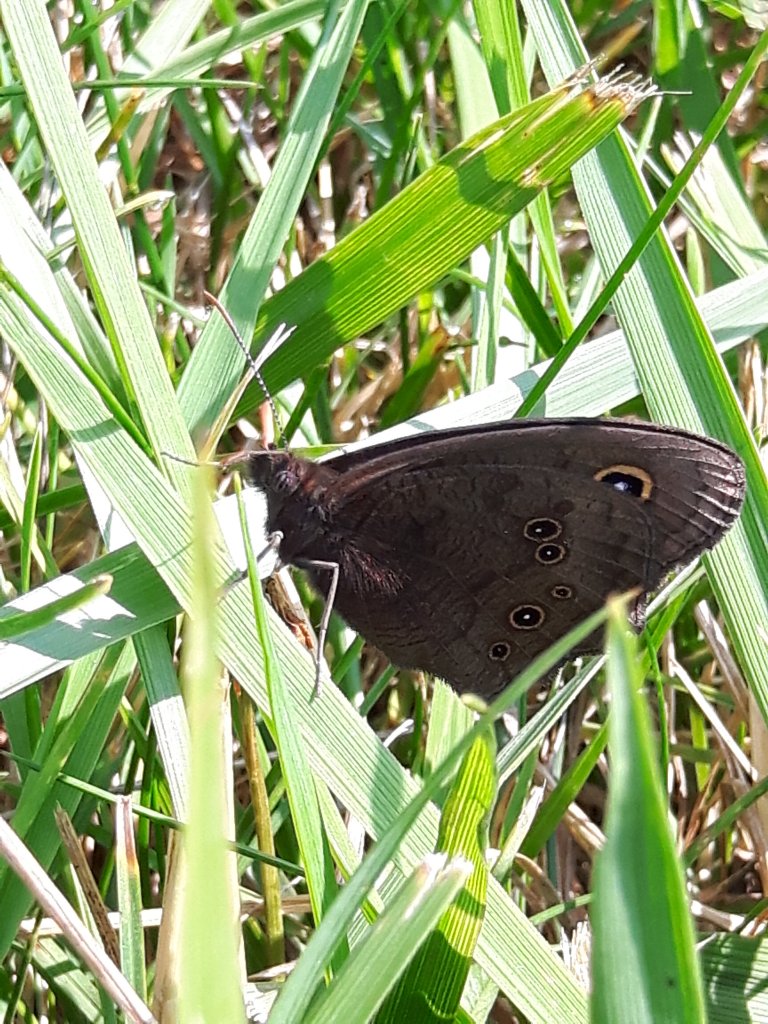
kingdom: Animalia
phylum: Arthropoda
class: Insecta
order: Lepidoptera
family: Nymphalidae
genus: Cercyonis
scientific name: Cercyonis pegala
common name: Common Wood-Nymph
